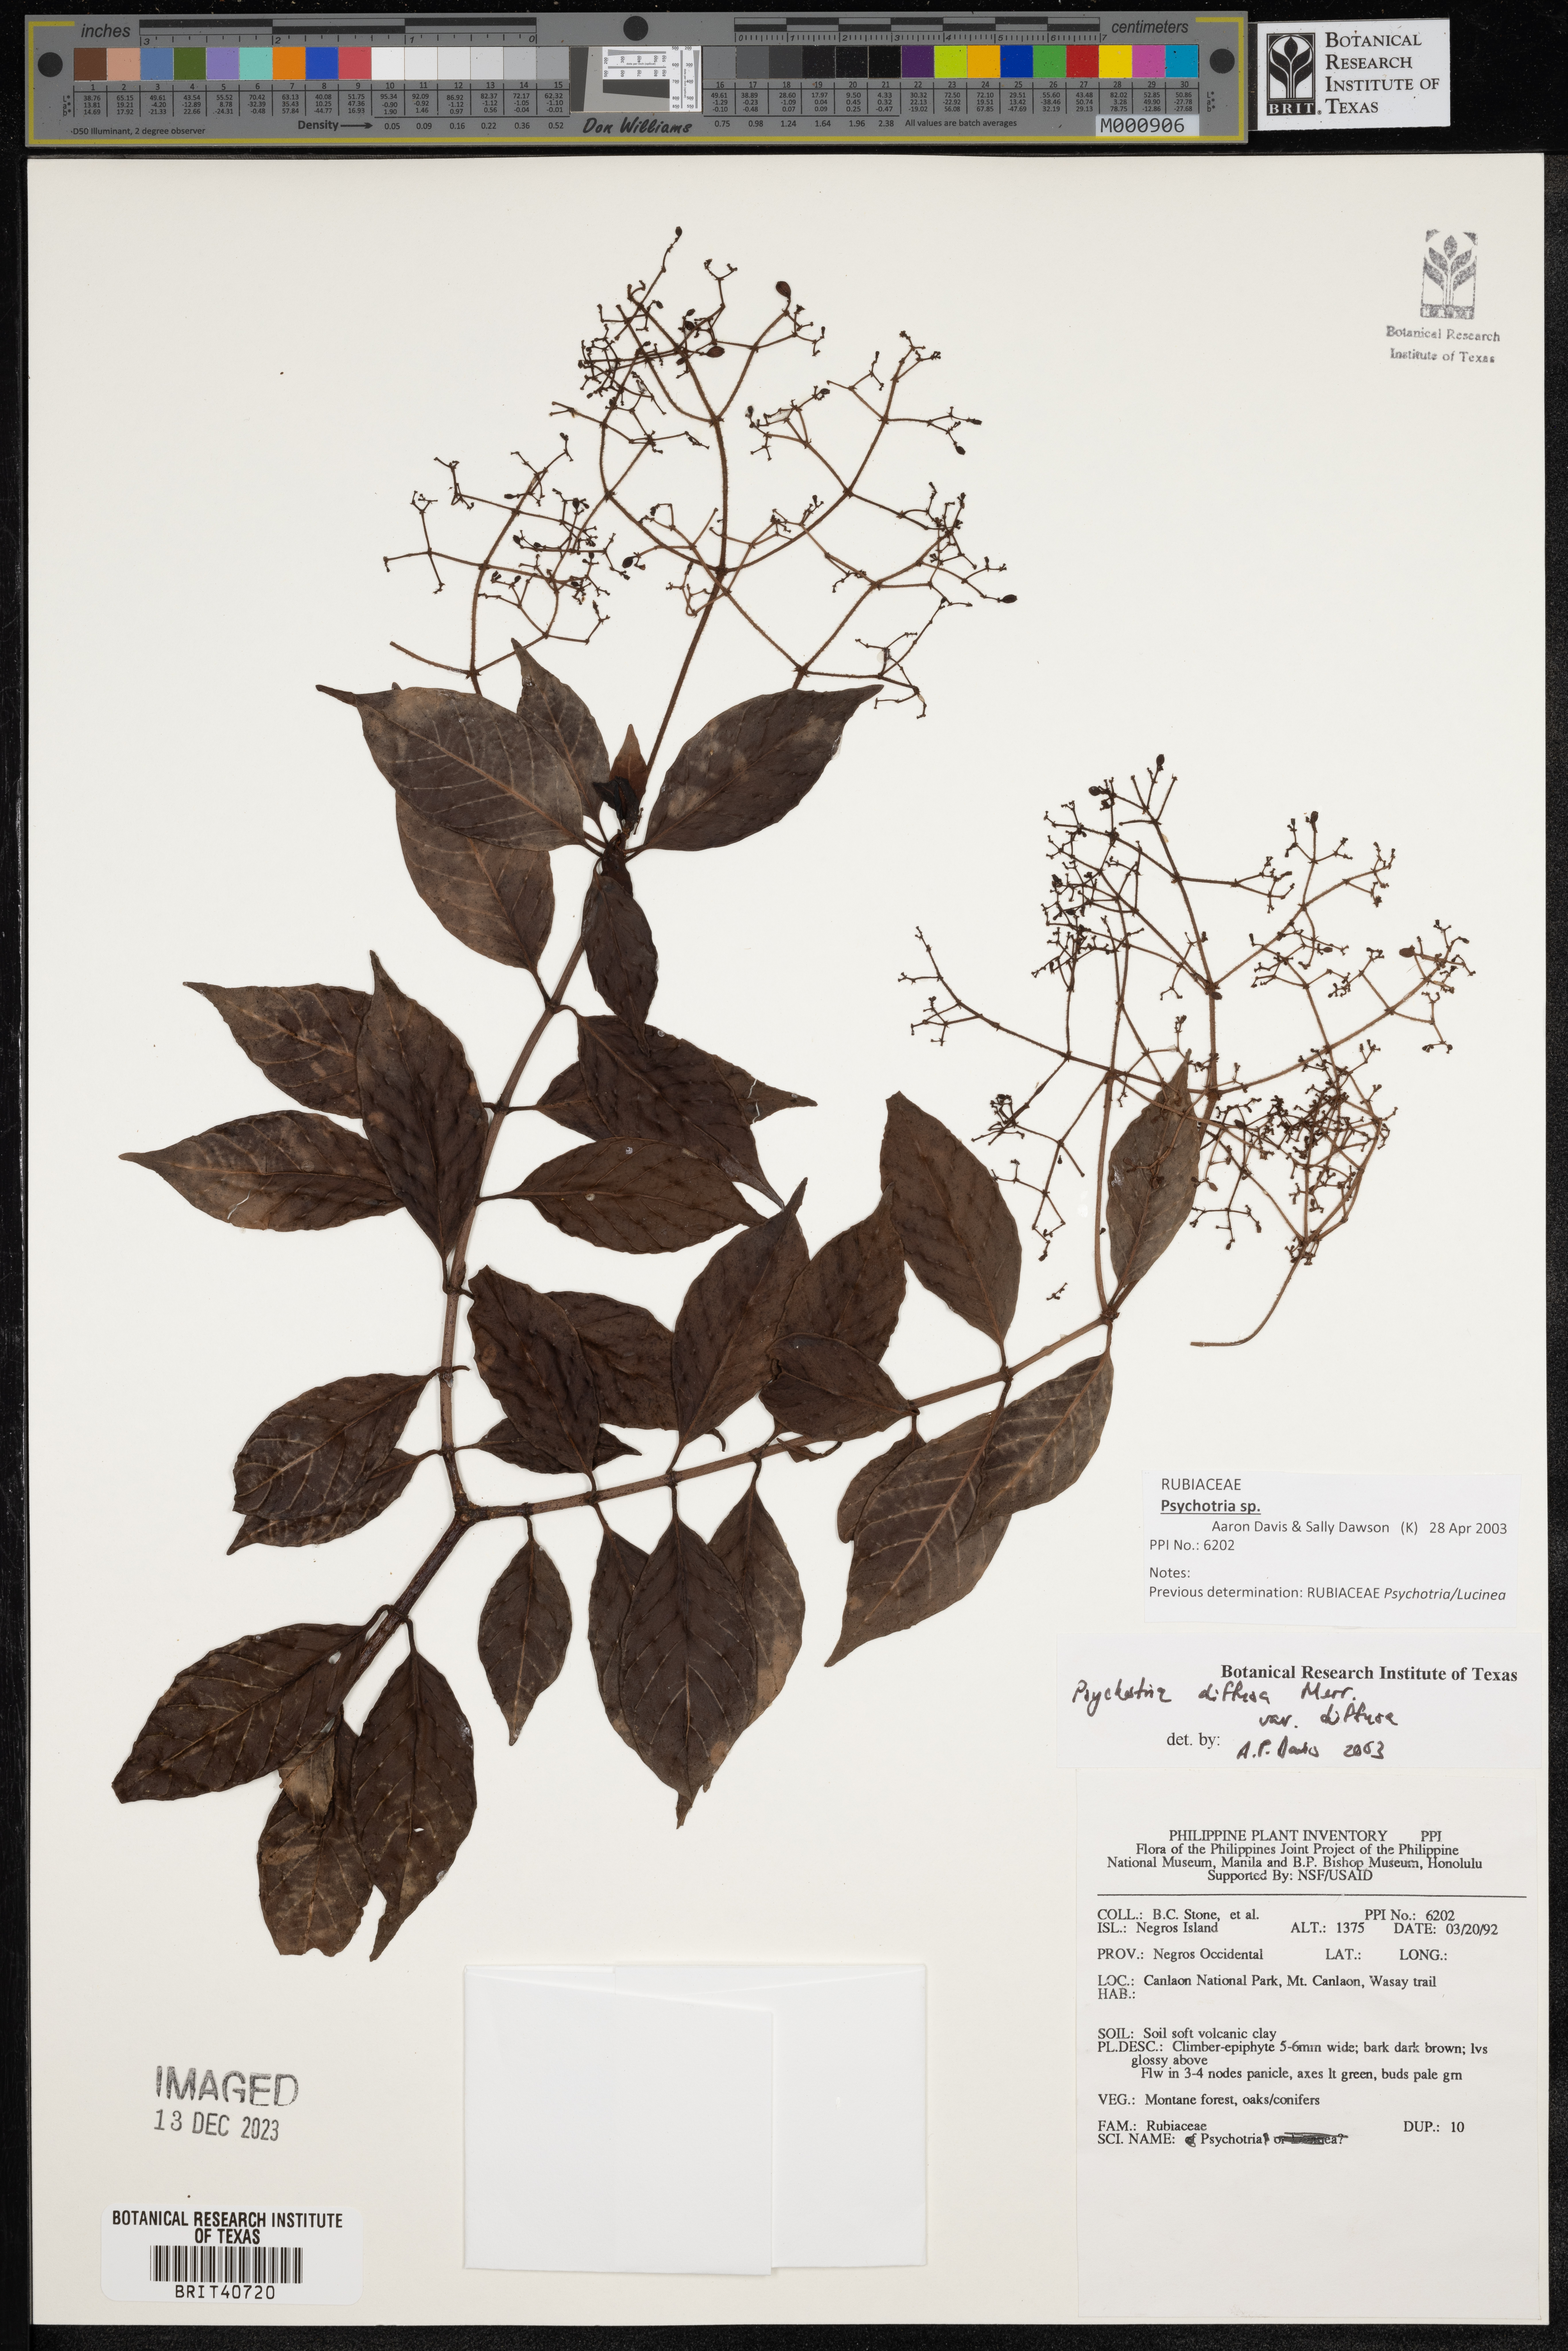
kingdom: Plantae
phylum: Tracheophyta
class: Magnoliopsida
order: Gentianales
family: Rubiaceae
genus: Psychotria
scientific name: Psychotria diffusa
